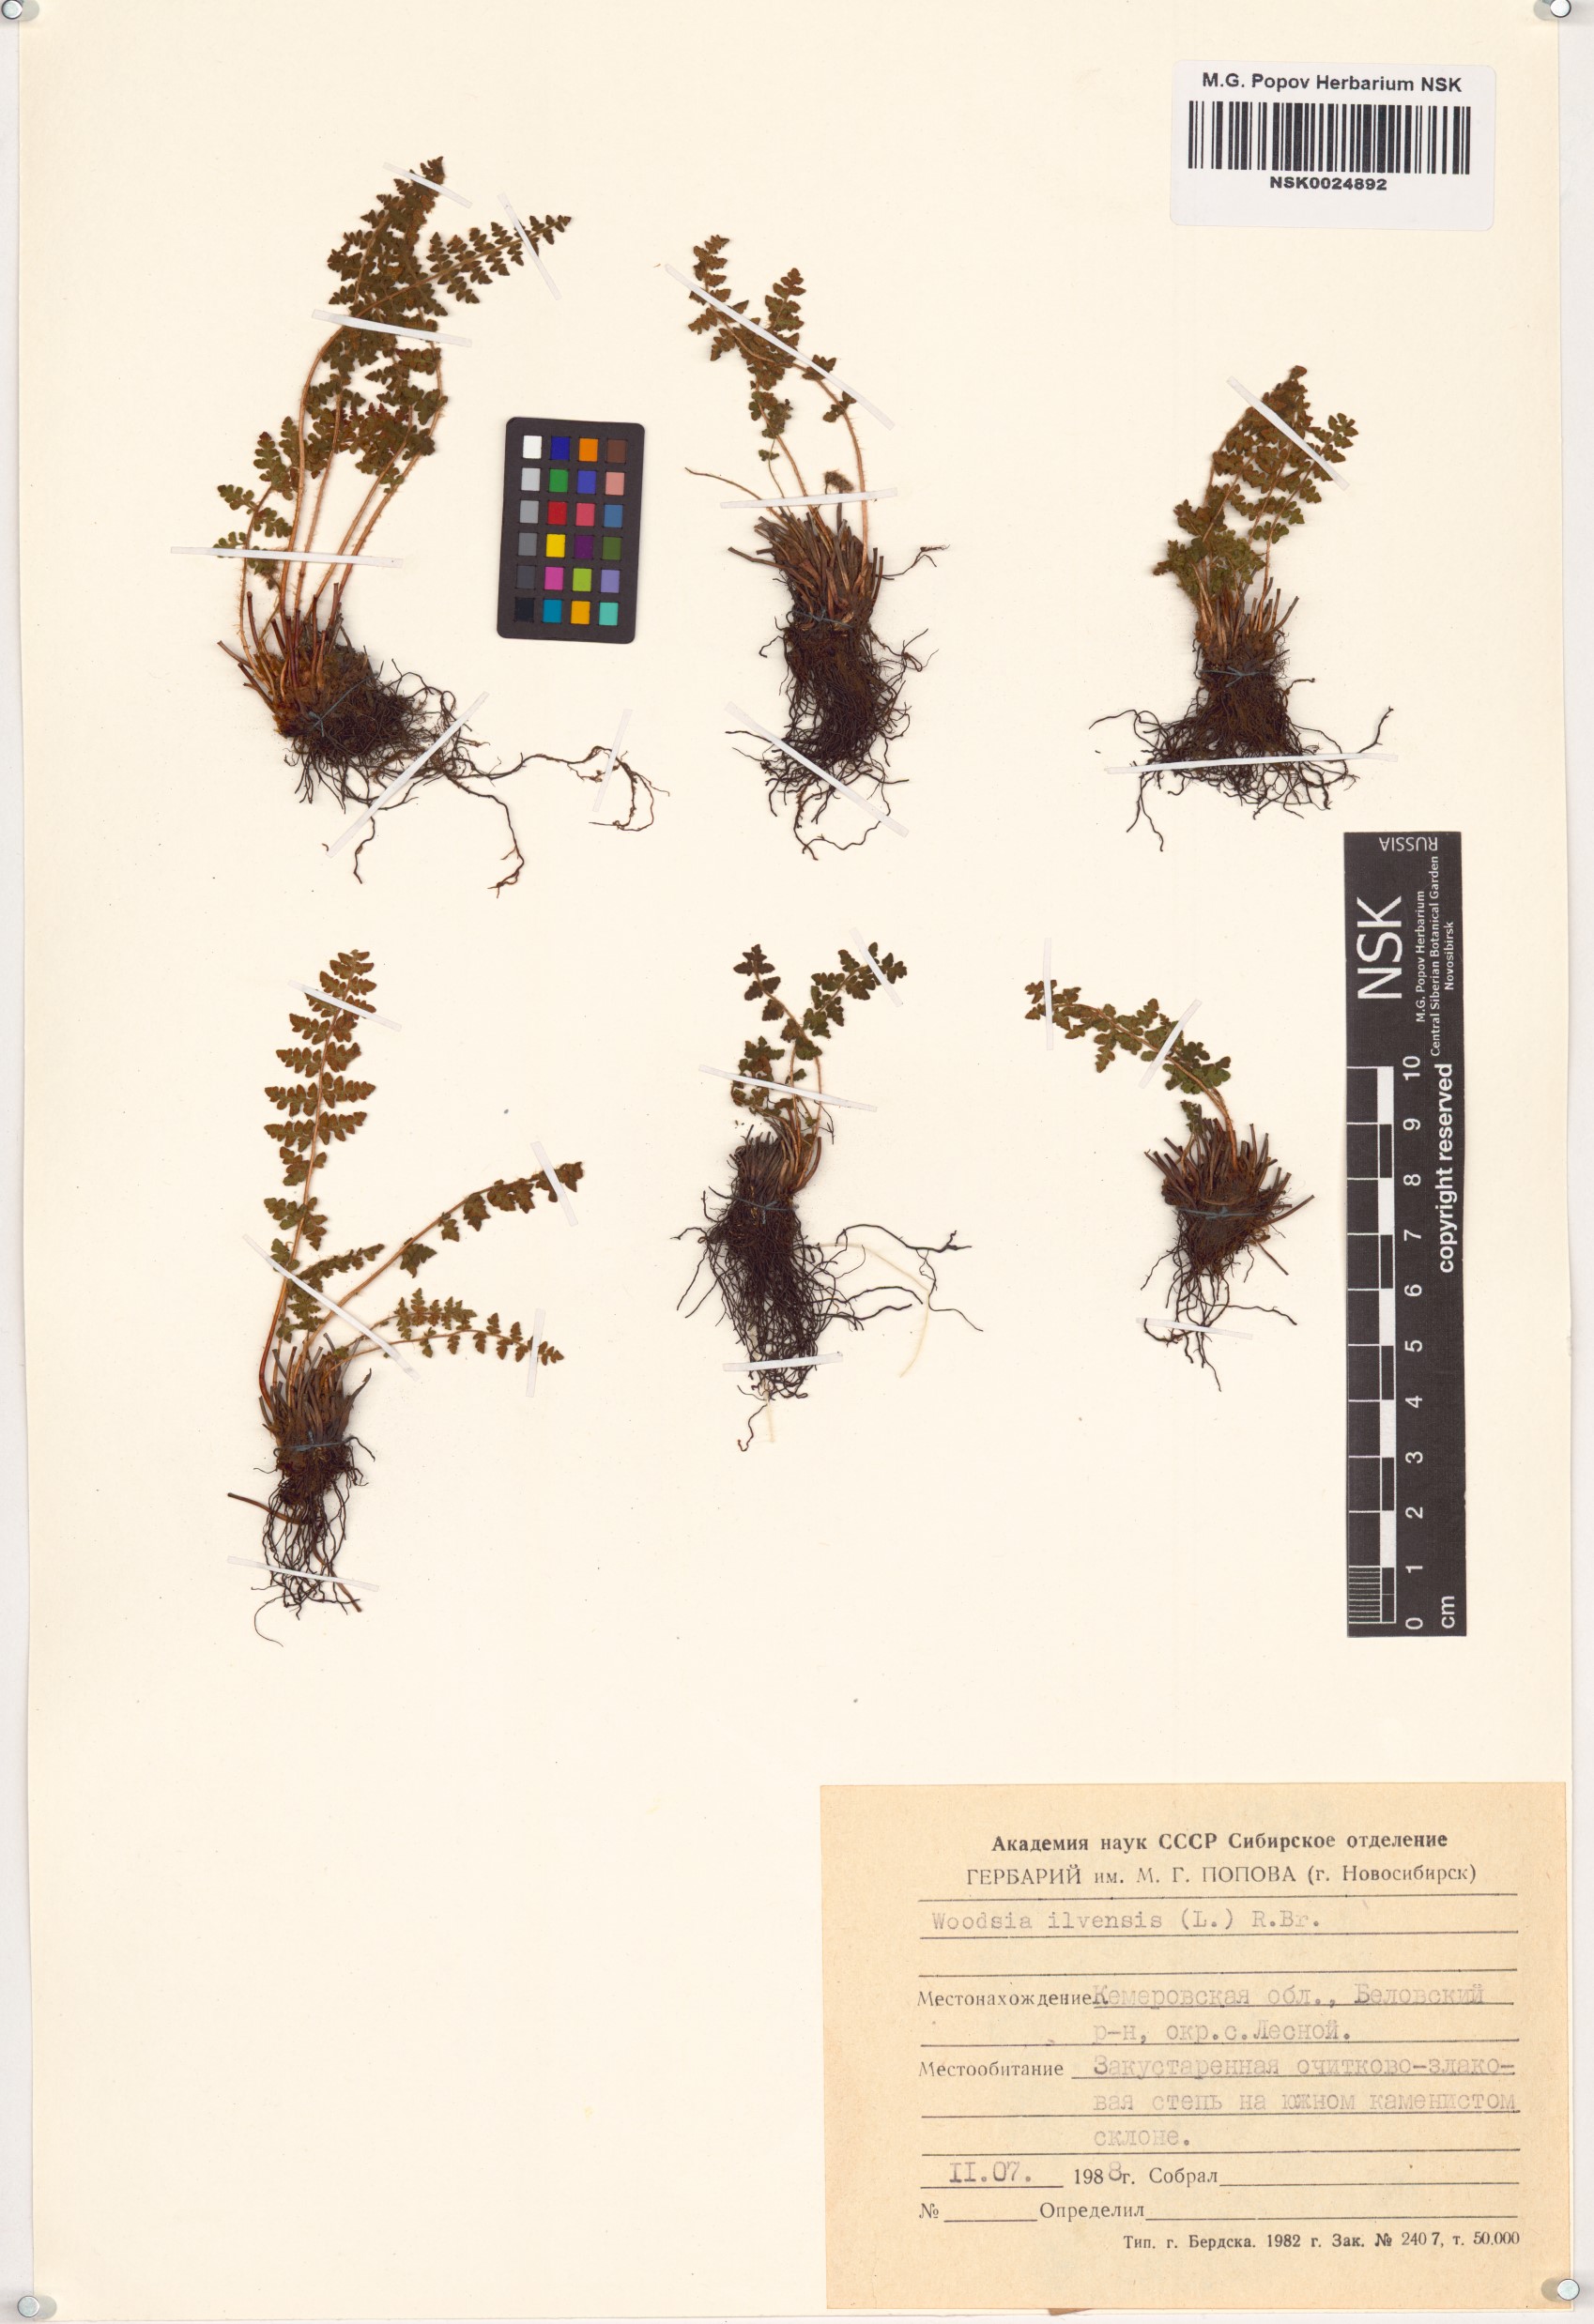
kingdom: Plantae
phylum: Tracheophyta
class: Polypodiopsida
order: Polypodiales
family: Woodsiaceae
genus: Woodsia
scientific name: Woodsia ilvensis
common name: Fragrant woodsia
